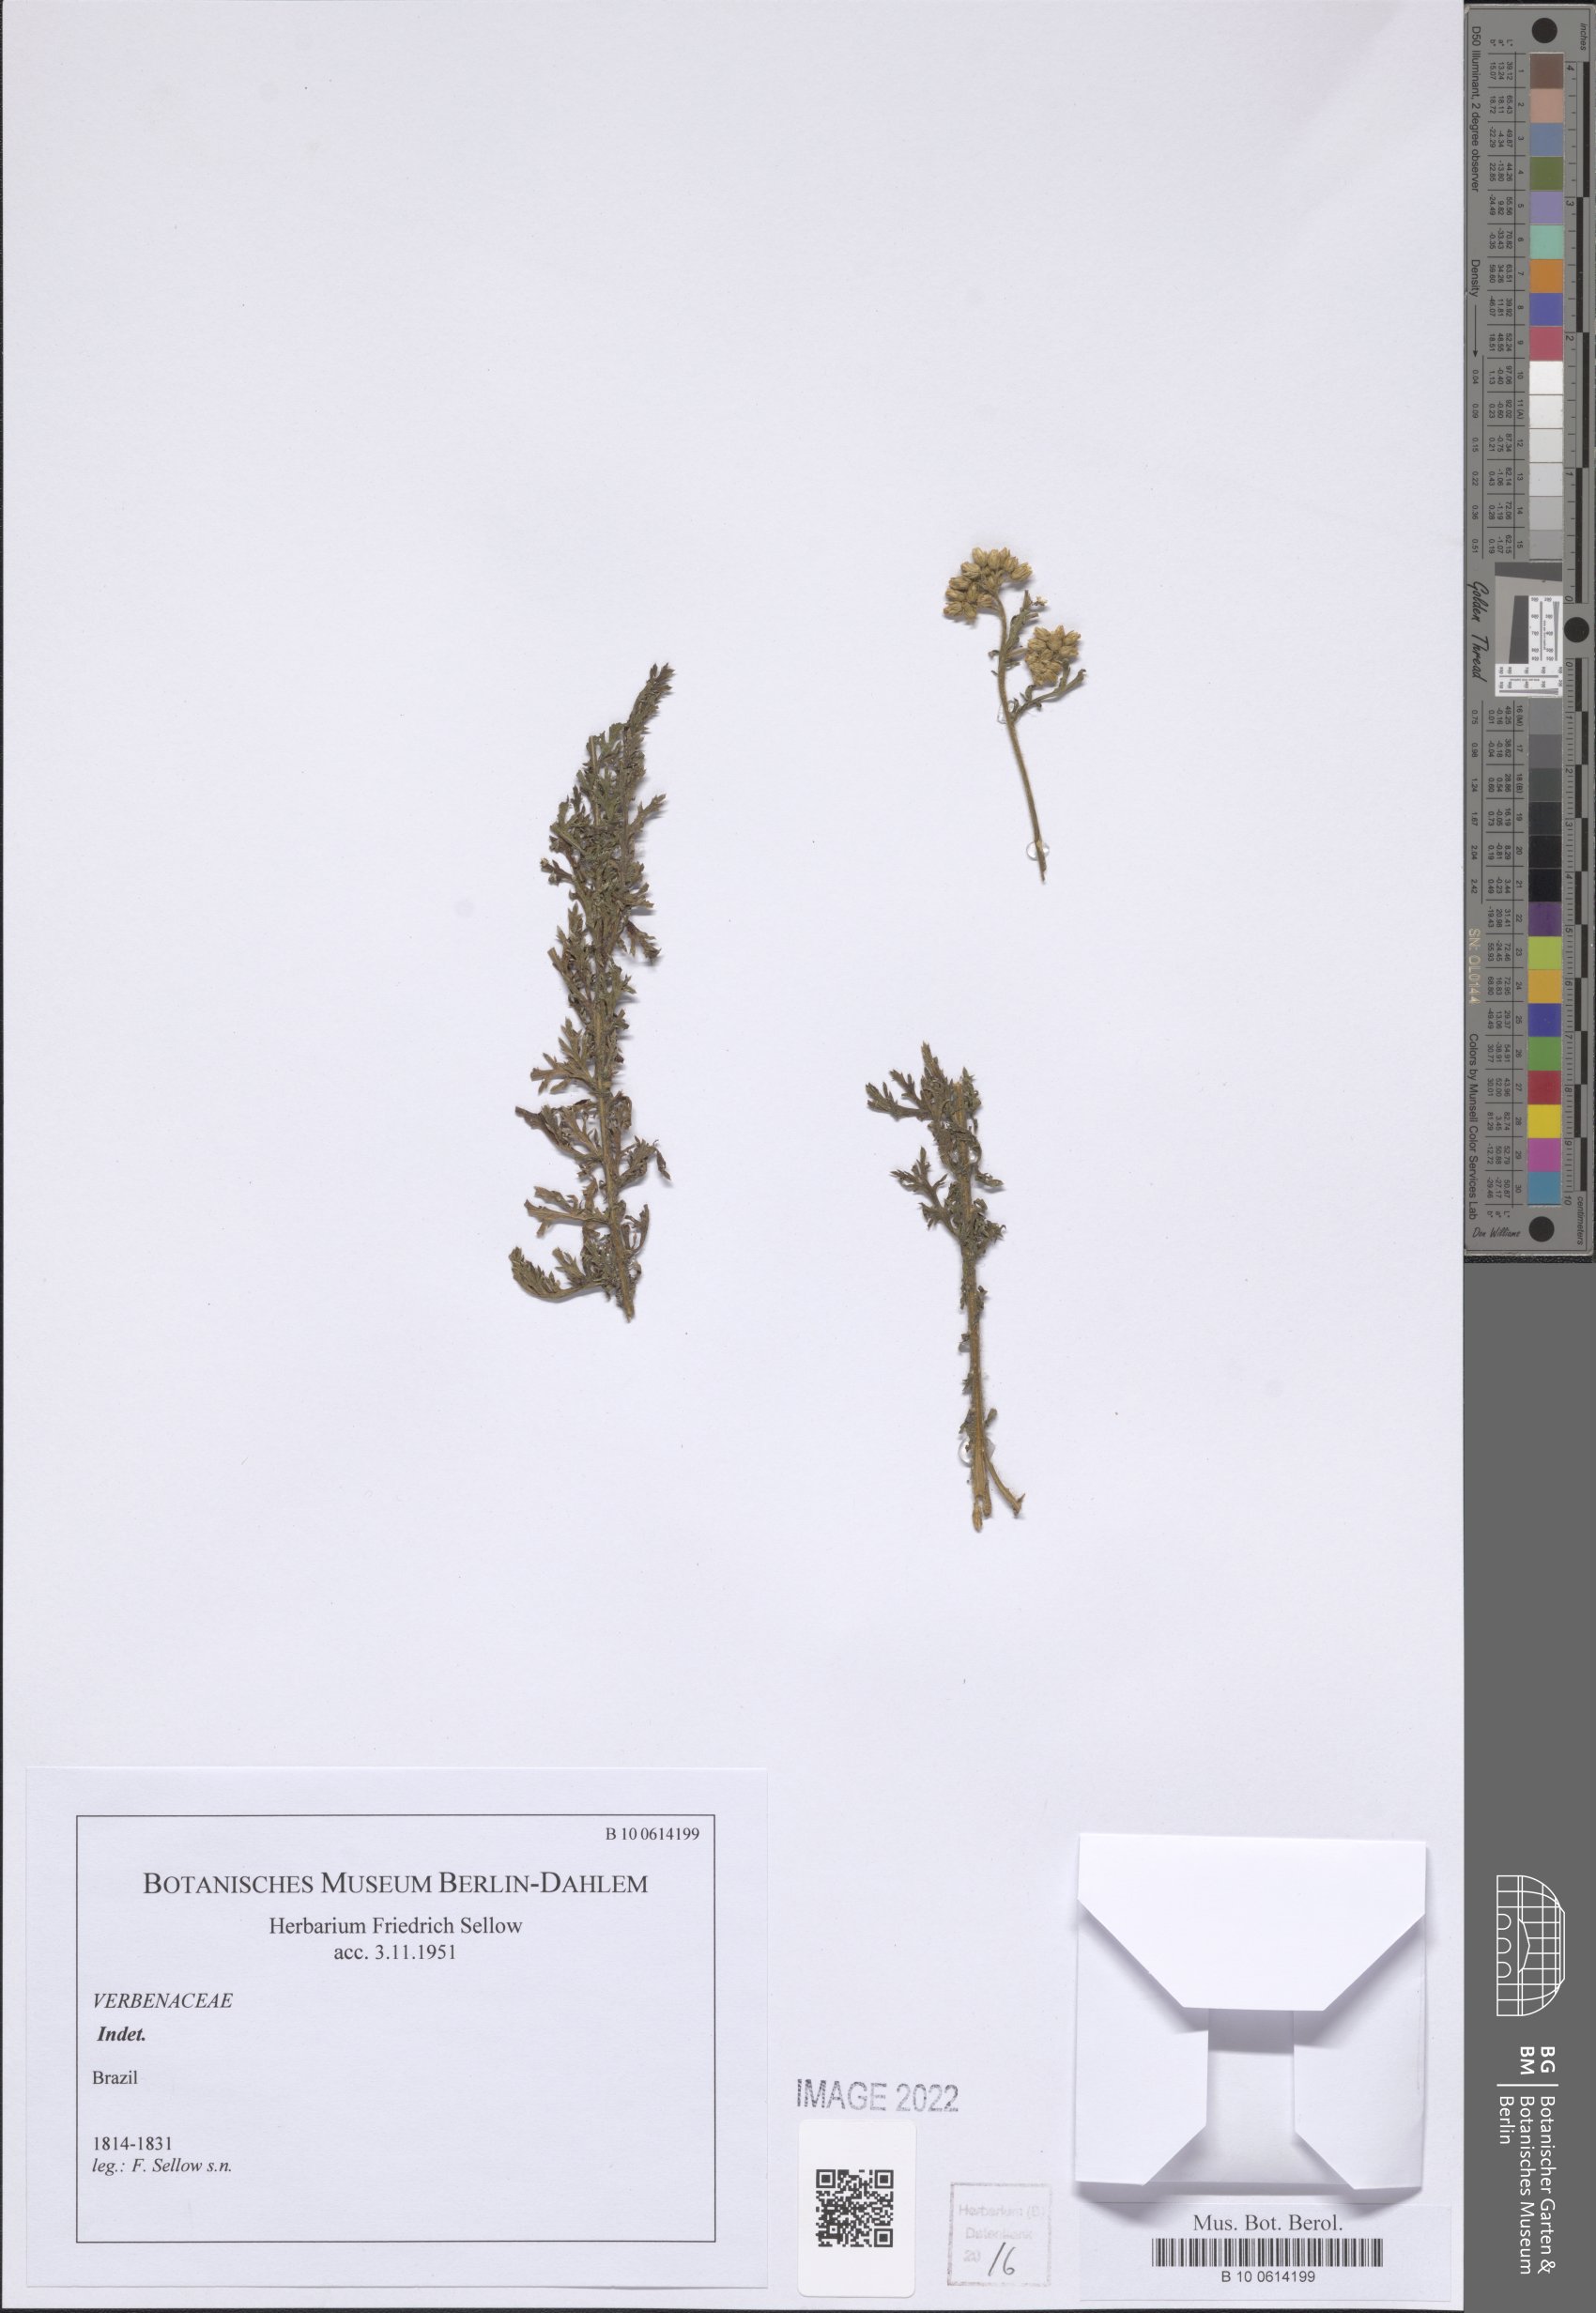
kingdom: Plantae
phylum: Tracheophyta
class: Magnoliopsida
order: Lamiales
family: Verbenaceae
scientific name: Verbenaceae
